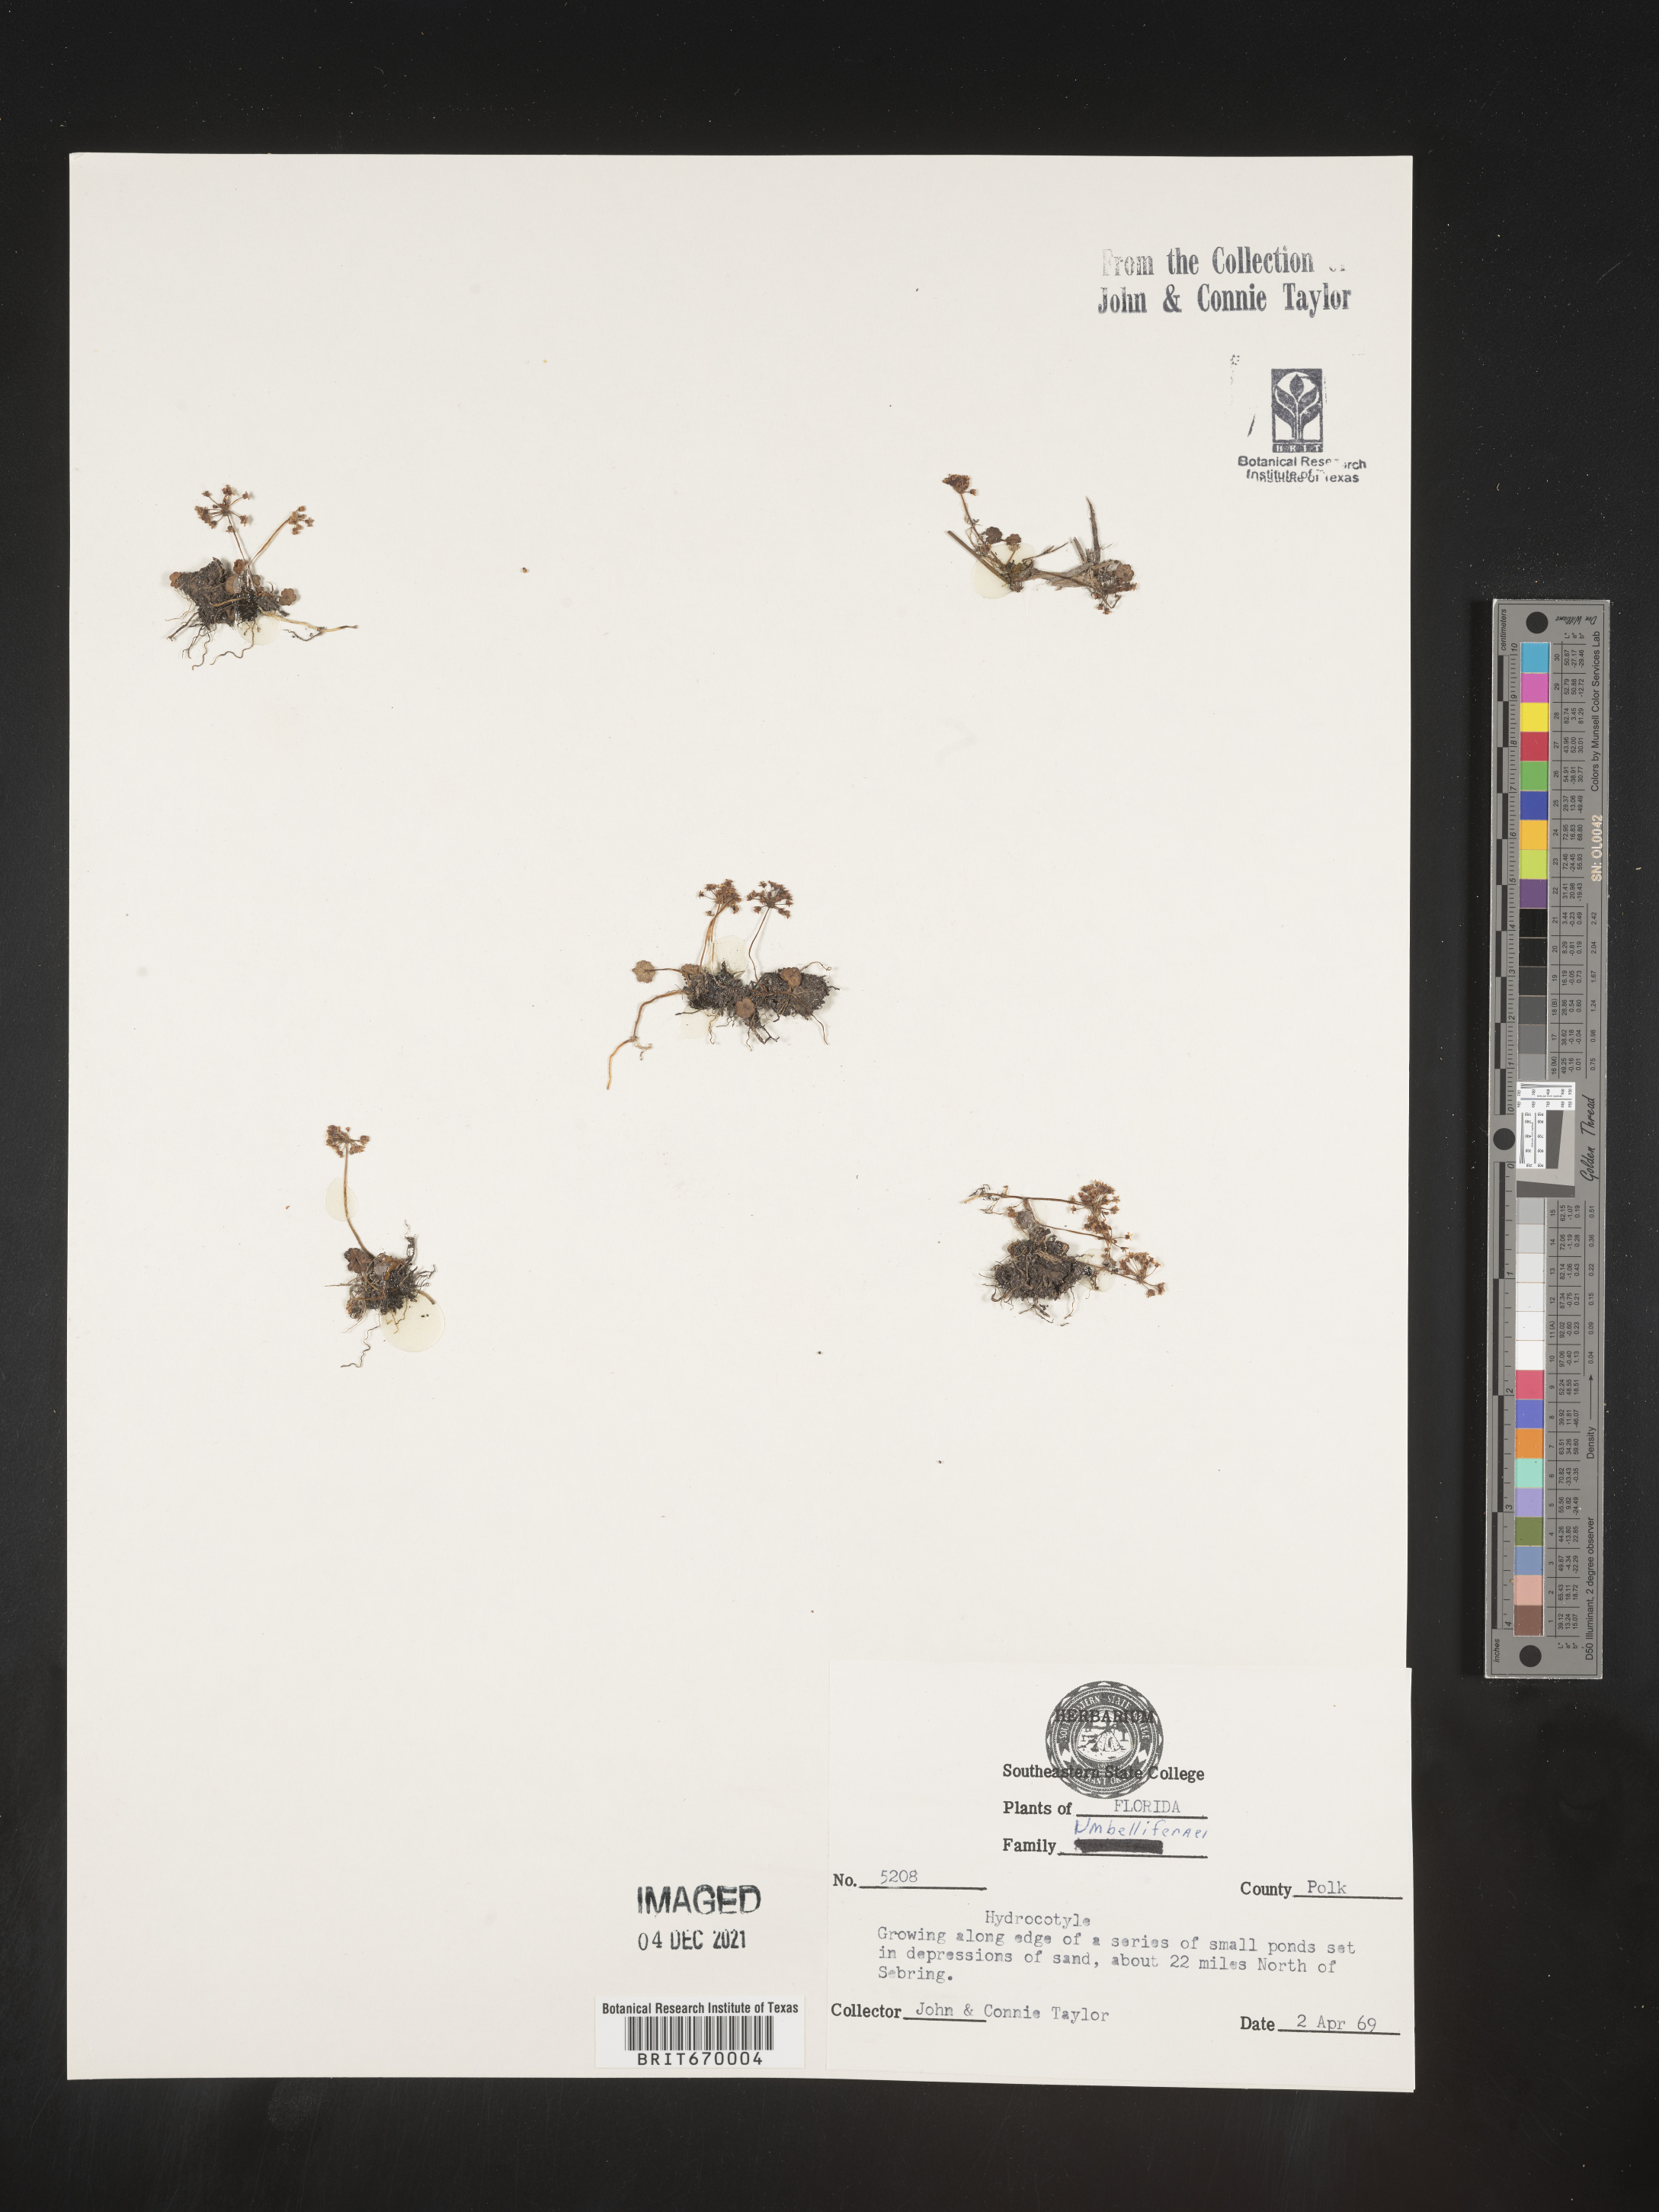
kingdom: Plantae
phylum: Tracheophyta
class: Magnoliopsida
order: Apiales
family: Araliaceae
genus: Hydrocotyle
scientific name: Hydrocotyle
